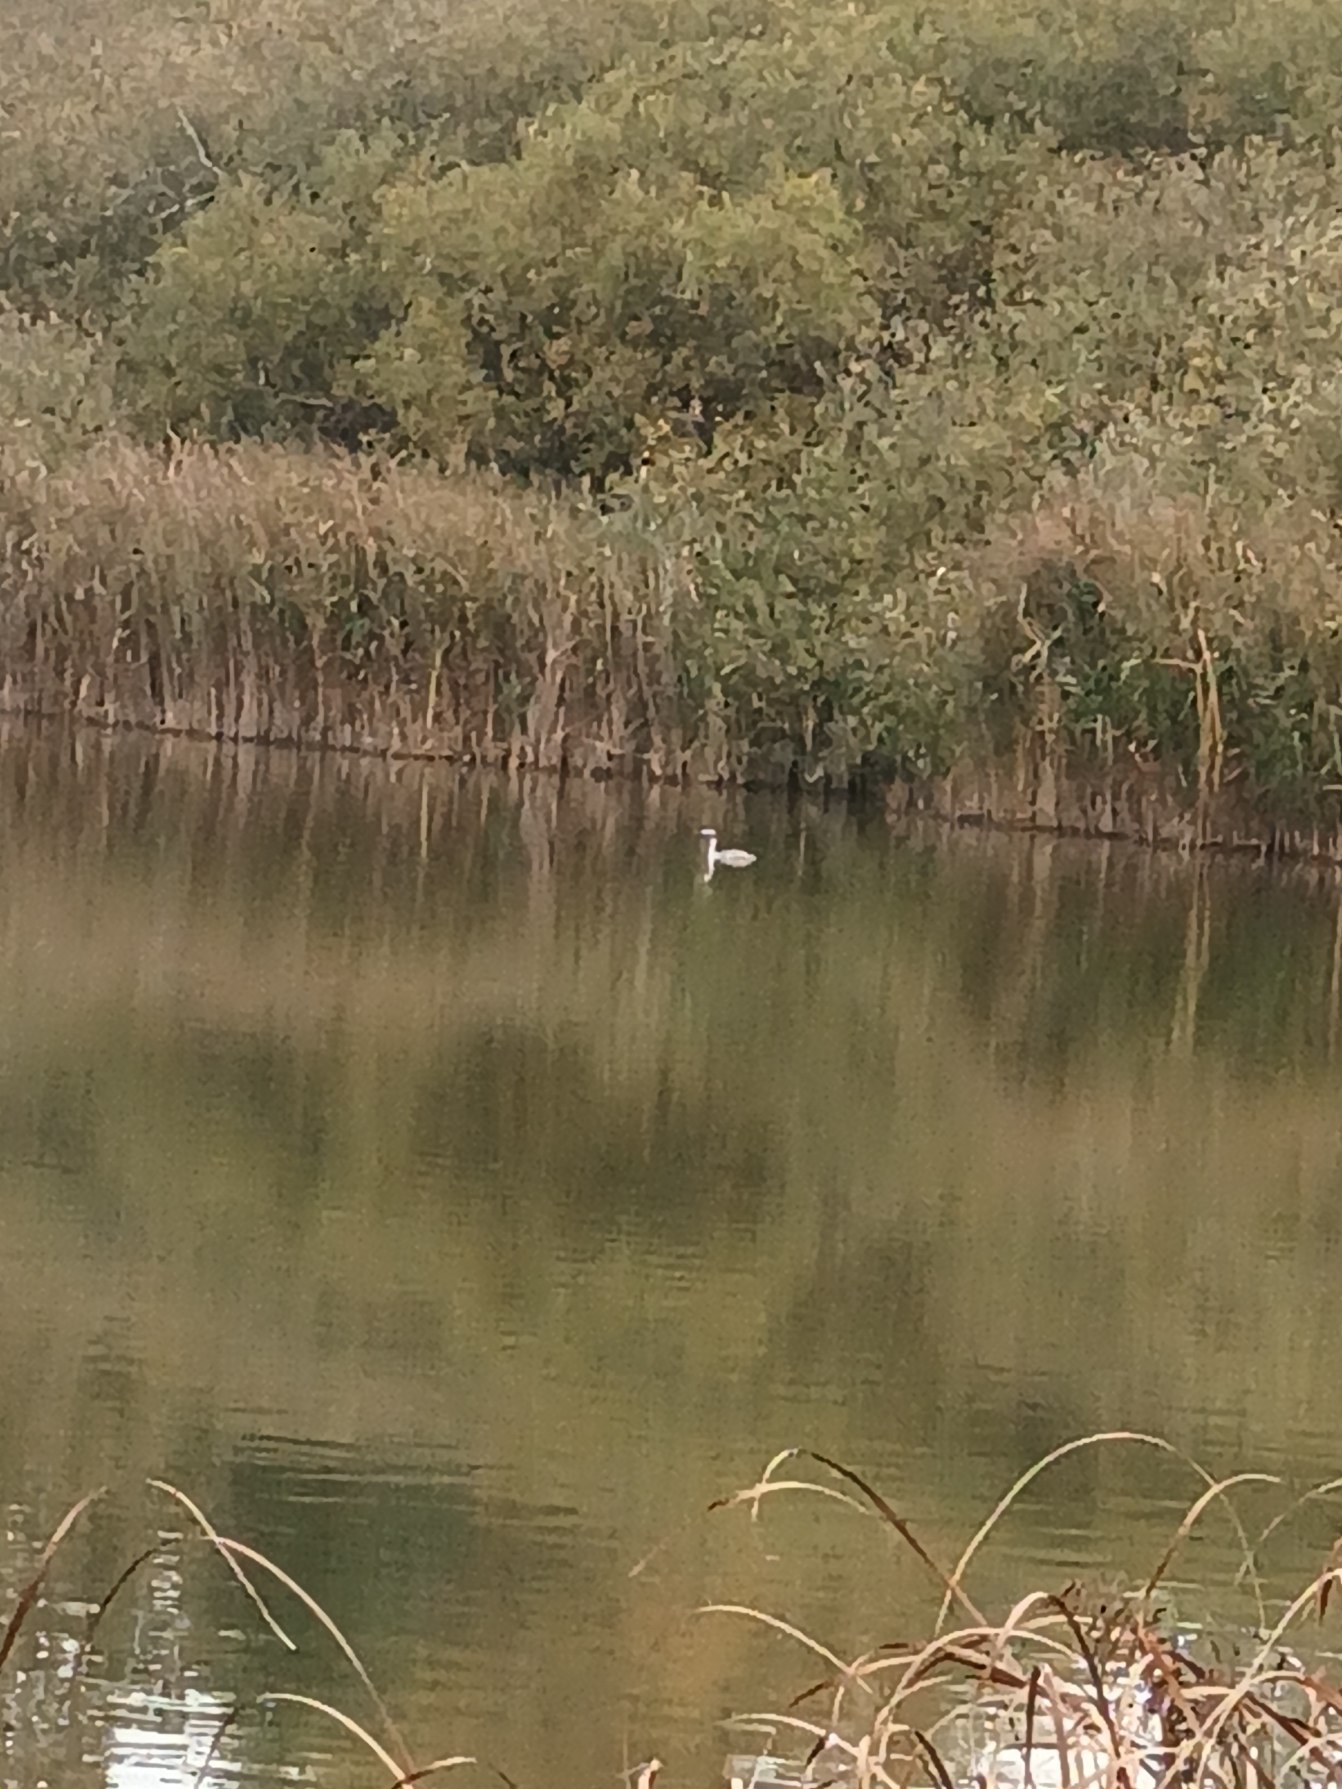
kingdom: Animalia
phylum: Chordata
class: Aves
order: Podicipediformes
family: Podicipedidae
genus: Podiceps
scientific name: Podiceps cristatus
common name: Toppet lappedykker
